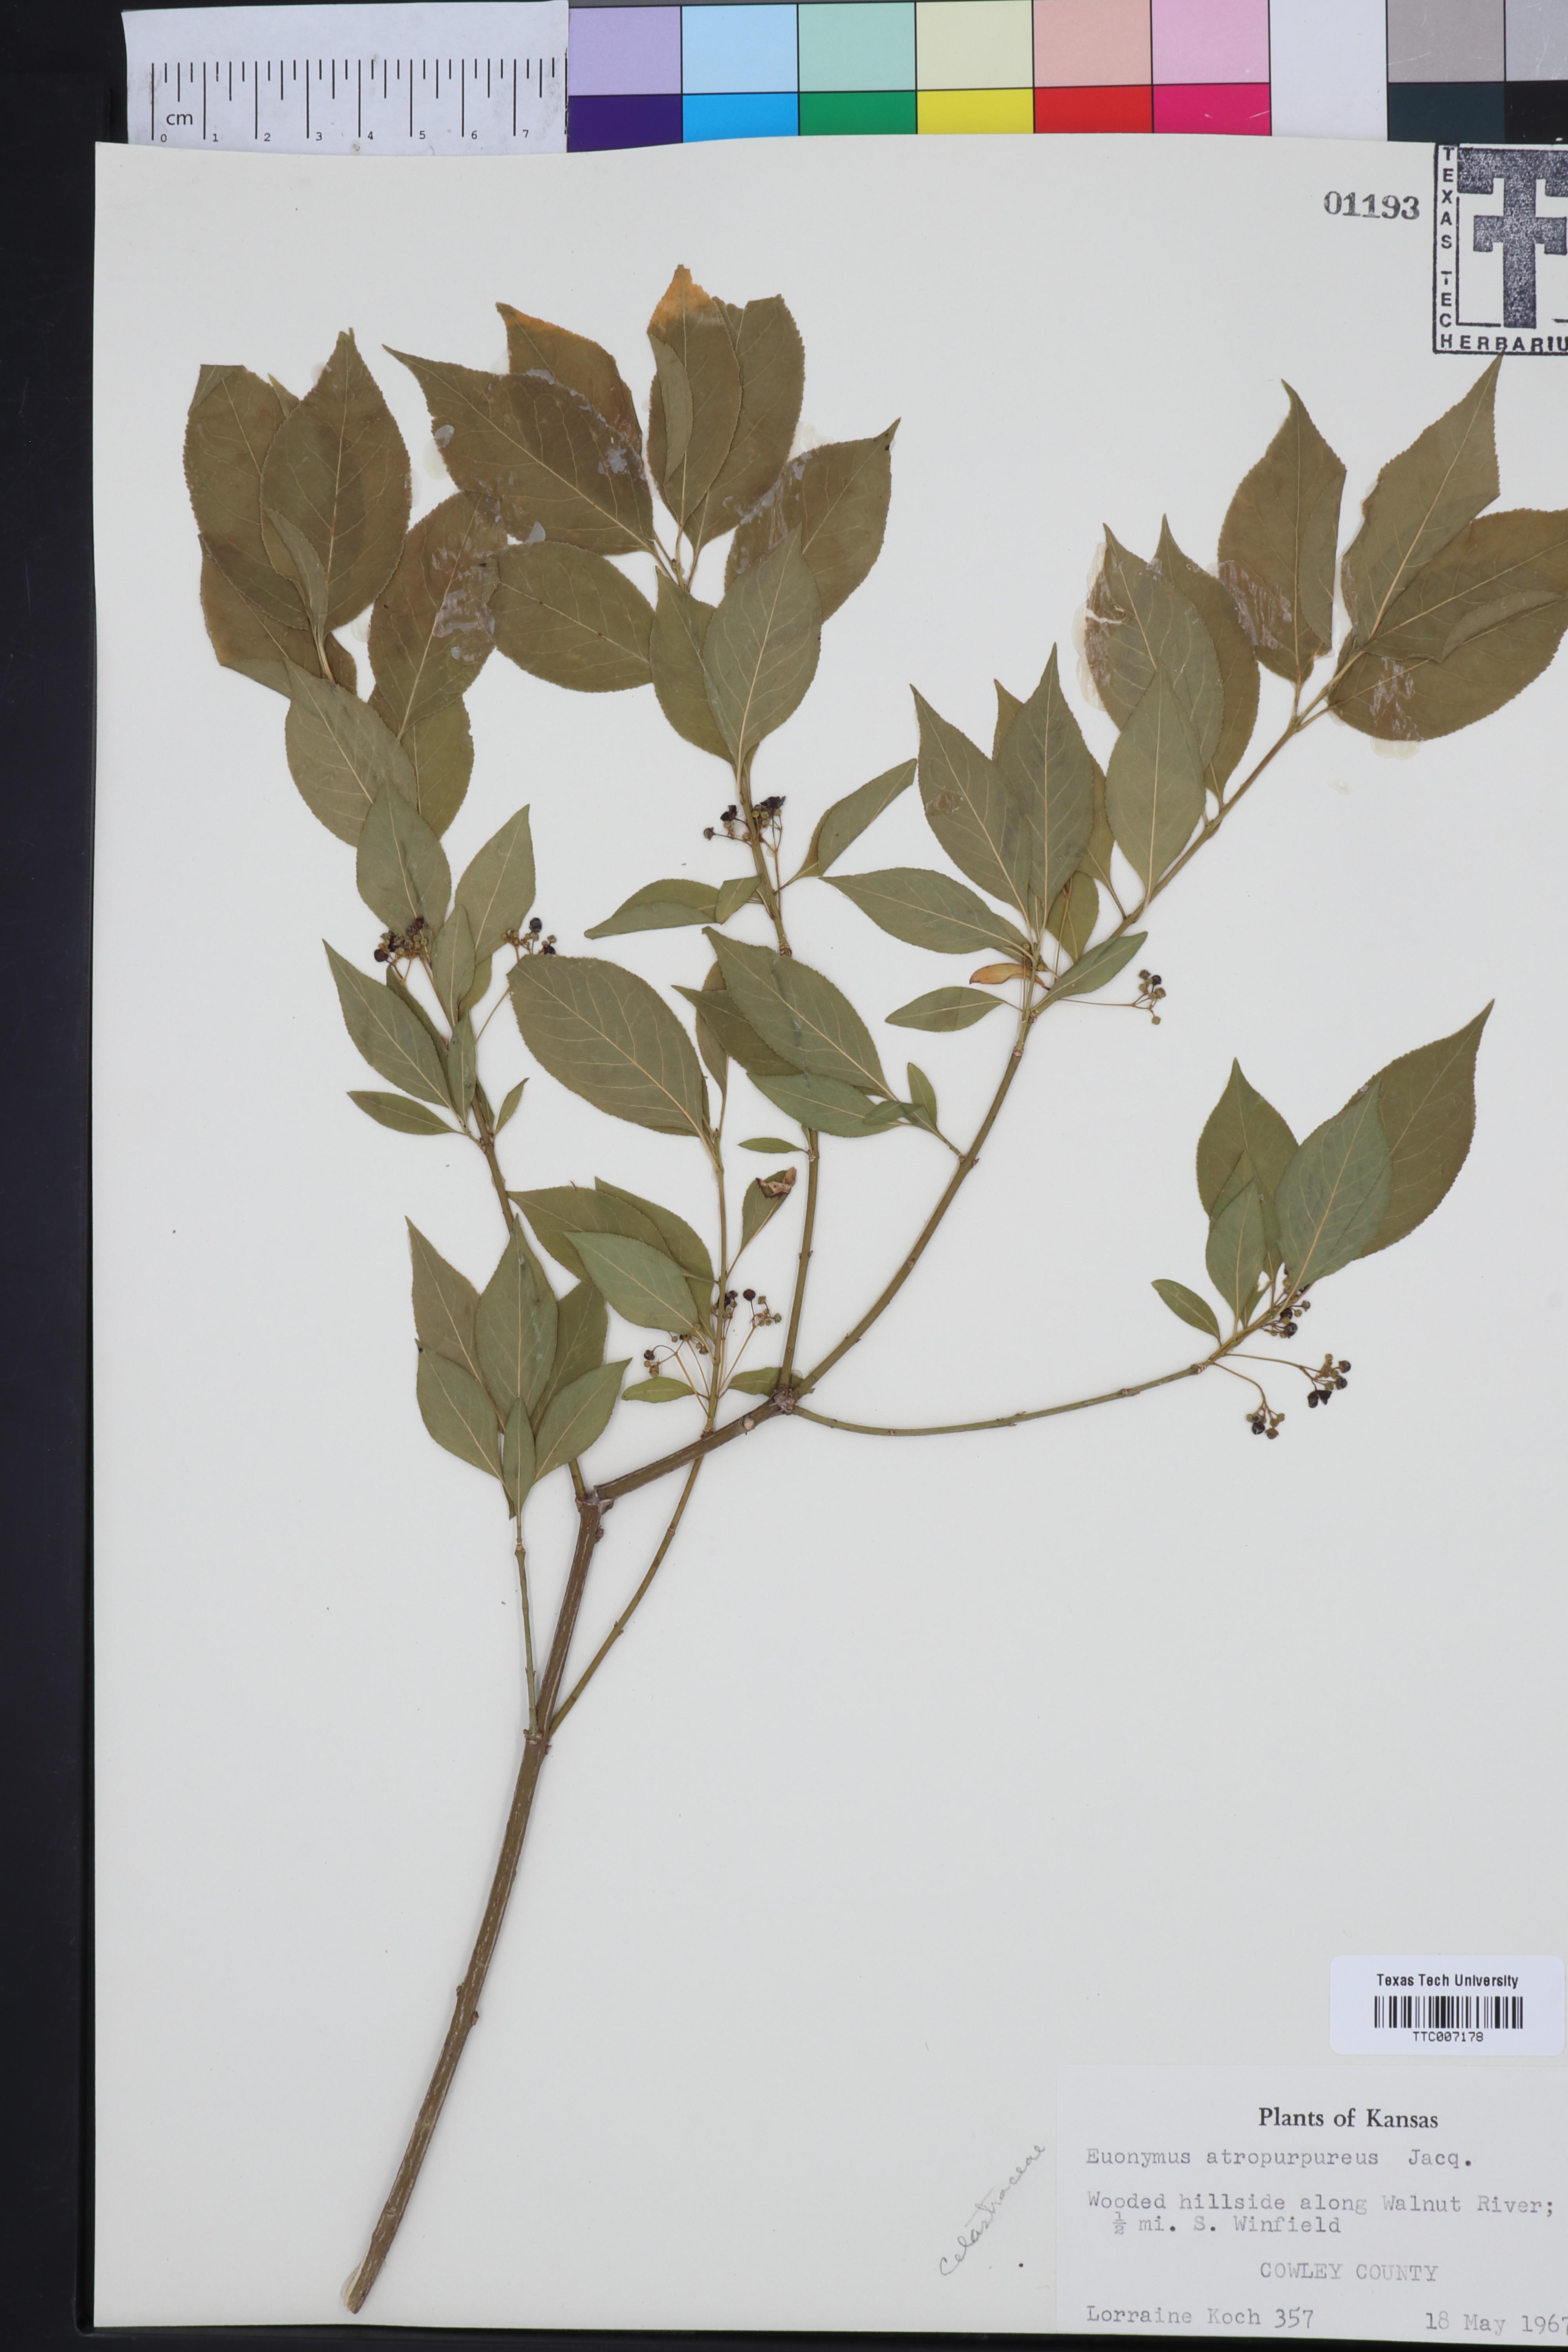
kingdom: Plantae
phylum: Tracheophyta
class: Magnoliopsida
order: Celastrales
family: Celastraceae
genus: Euonymus
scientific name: Euonymus atropurpureus
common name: Eastern wahoo
